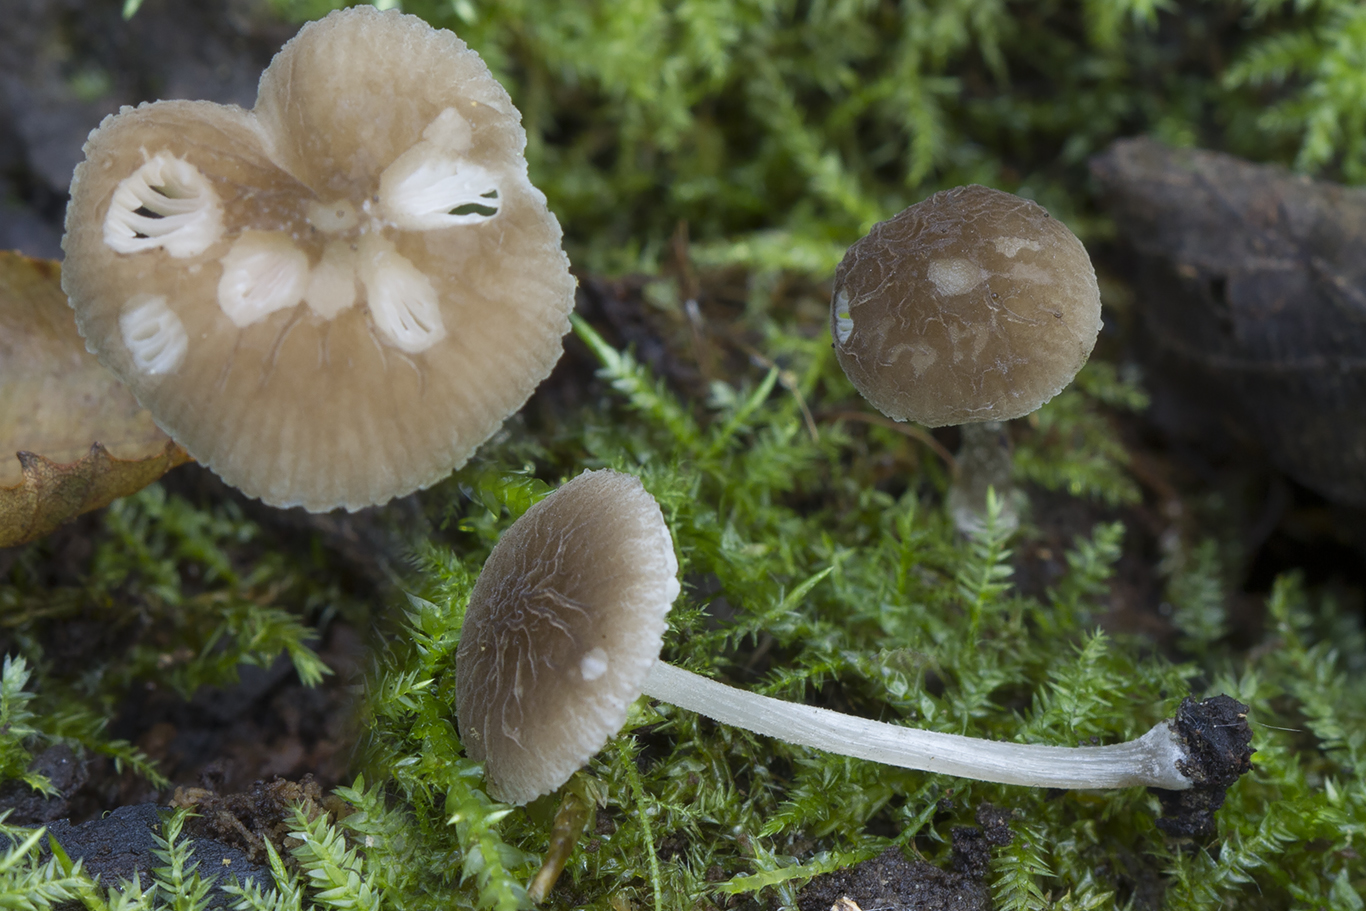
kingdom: Fungi
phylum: Basidiomycota
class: Agaricomycetes
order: Agaricales
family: Pluteaceae
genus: Pluteus
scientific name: Pluteus
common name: gråstokket skærmhat
